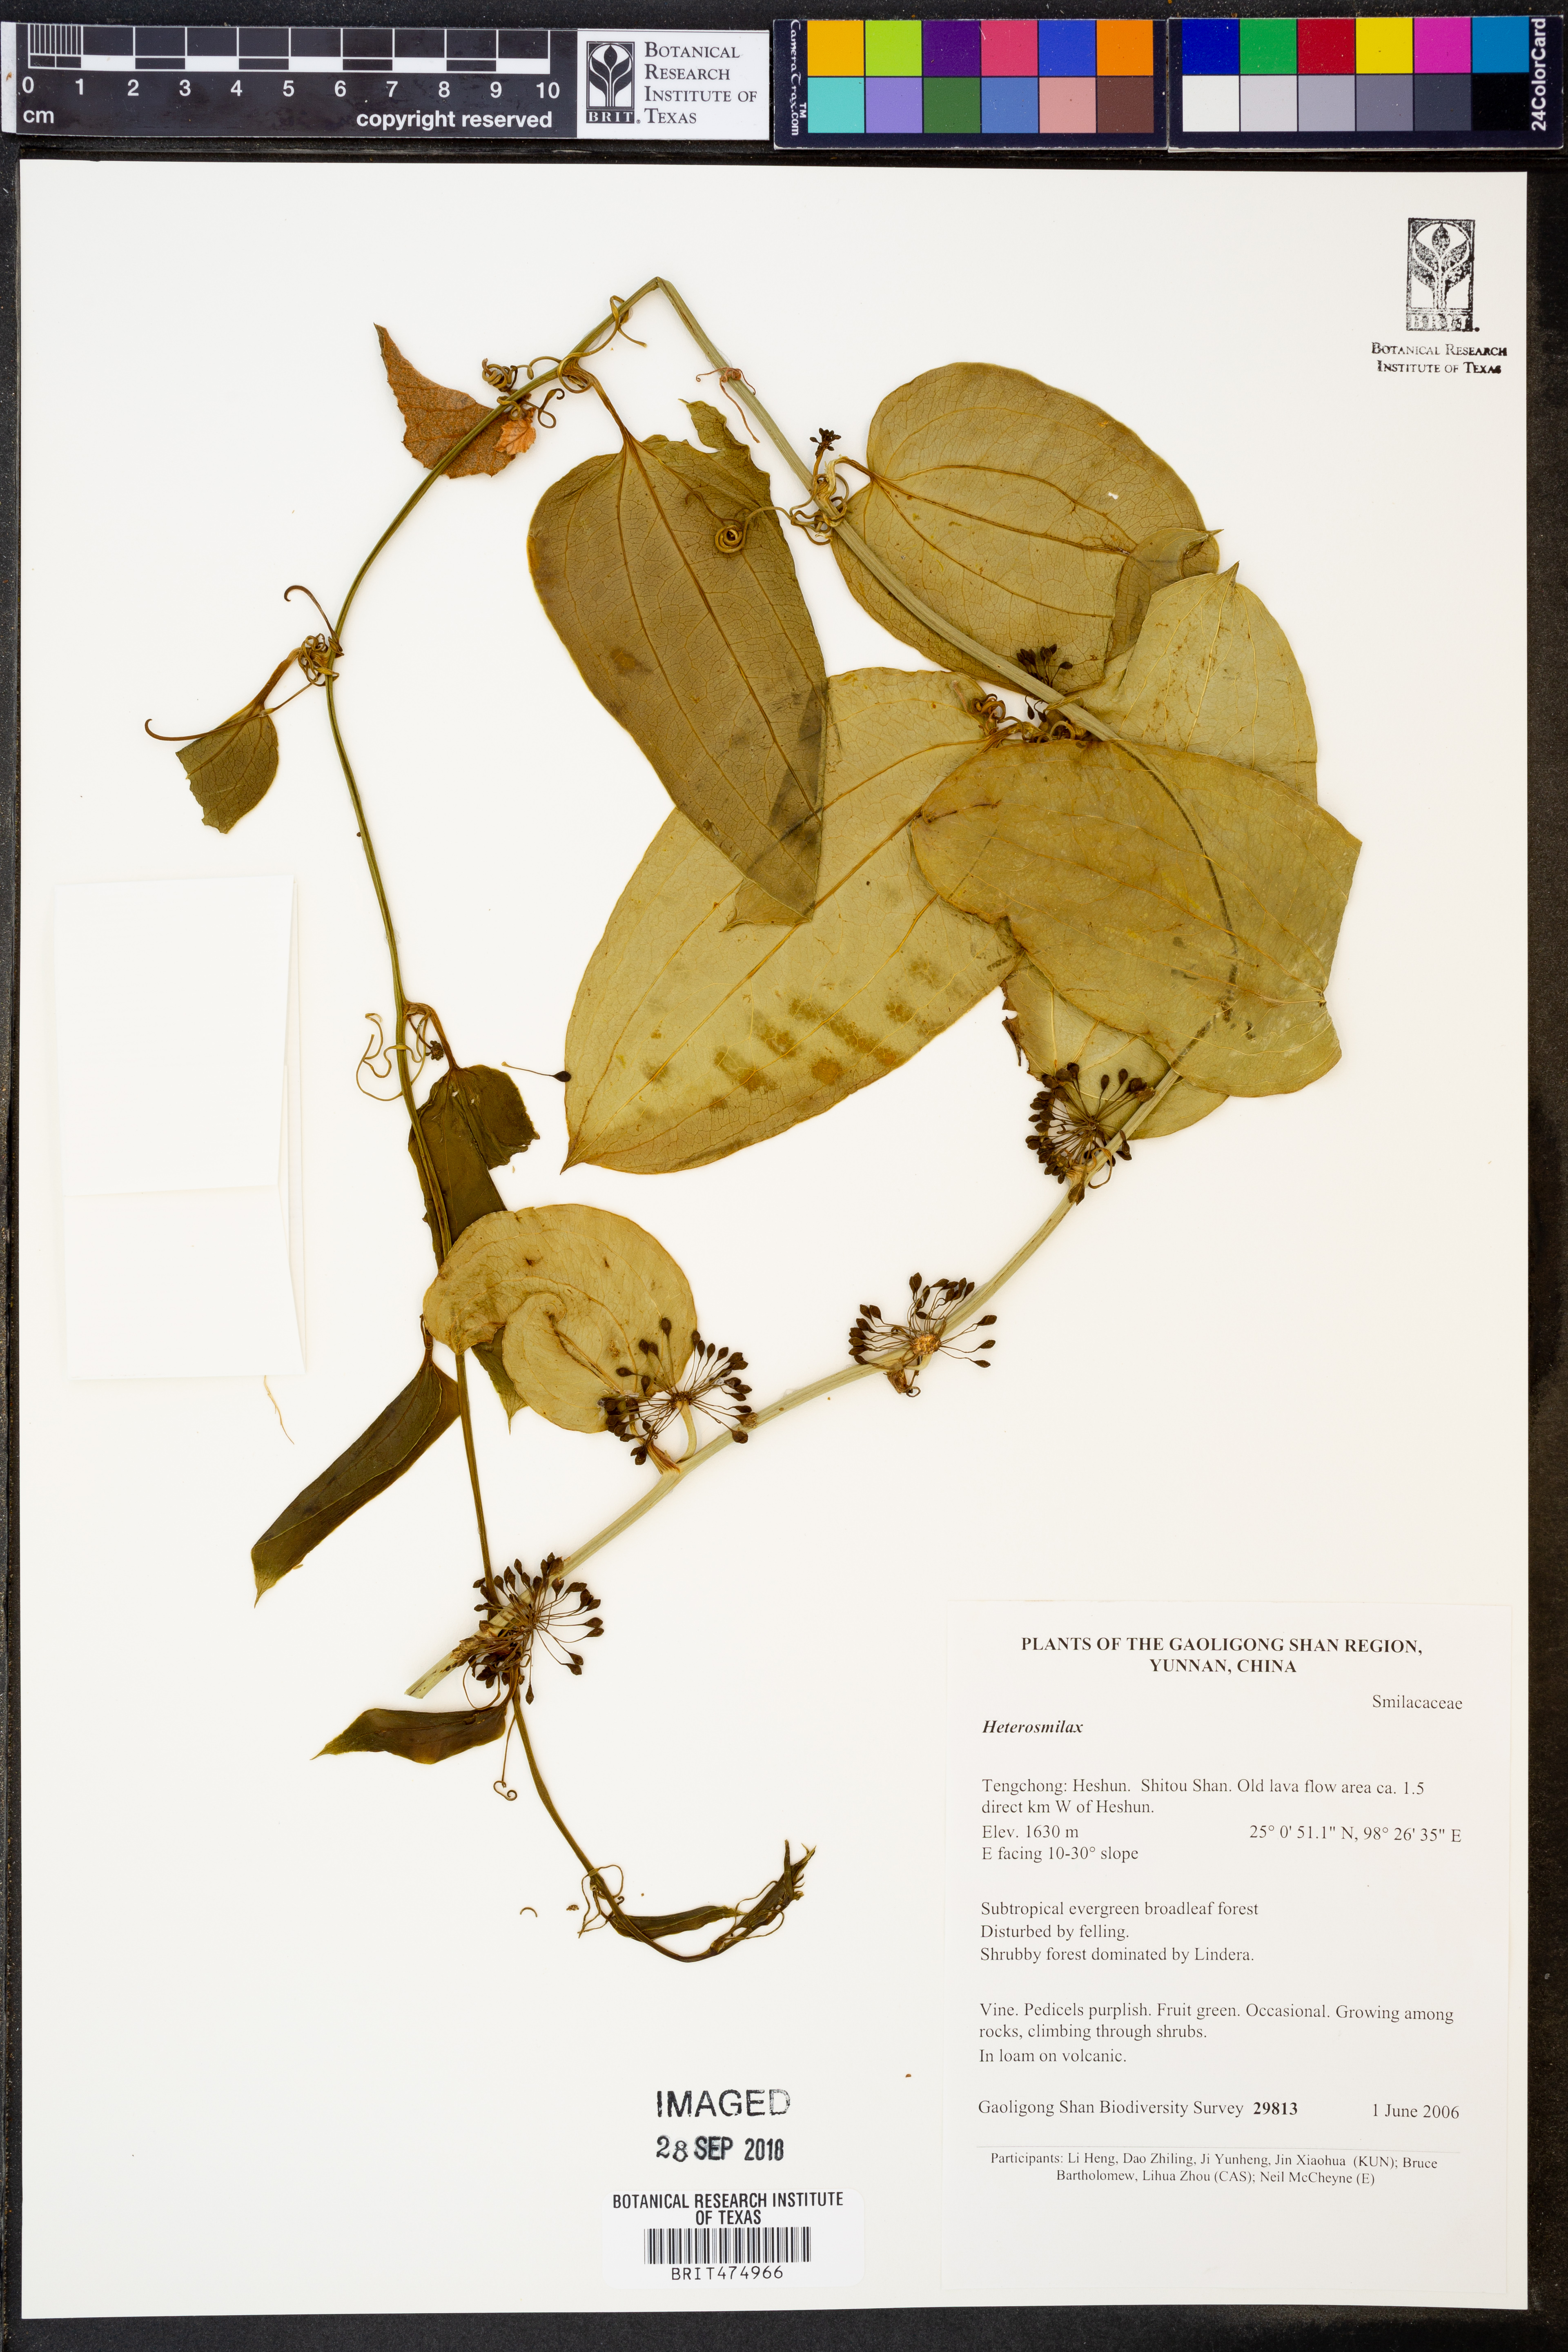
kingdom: Plantae
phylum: Tracheophyta
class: Liliopsida
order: Liliales
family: Smilacaceae
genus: Smilax
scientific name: Smilax
